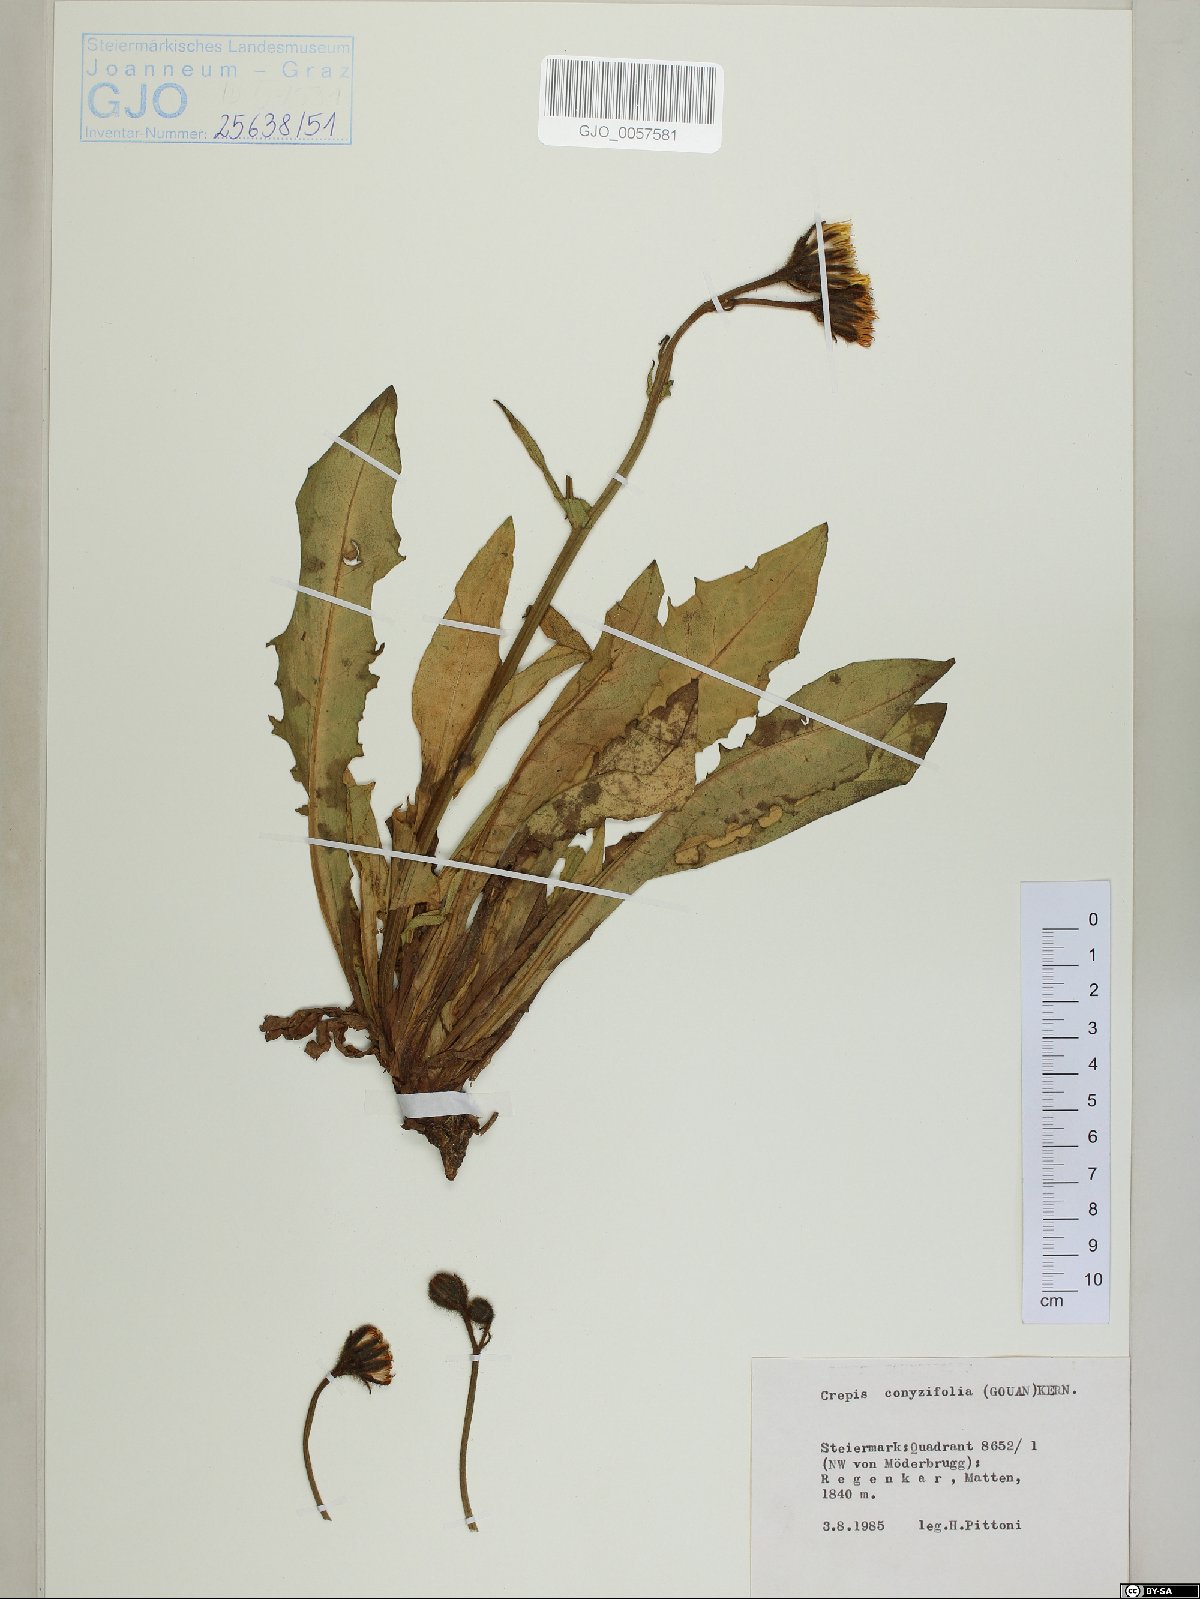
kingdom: Plantae
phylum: Tracheophyta
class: Magnoliopsida
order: Asterales
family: Asteraceae
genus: Crepis
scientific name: Crepis blattarioides
